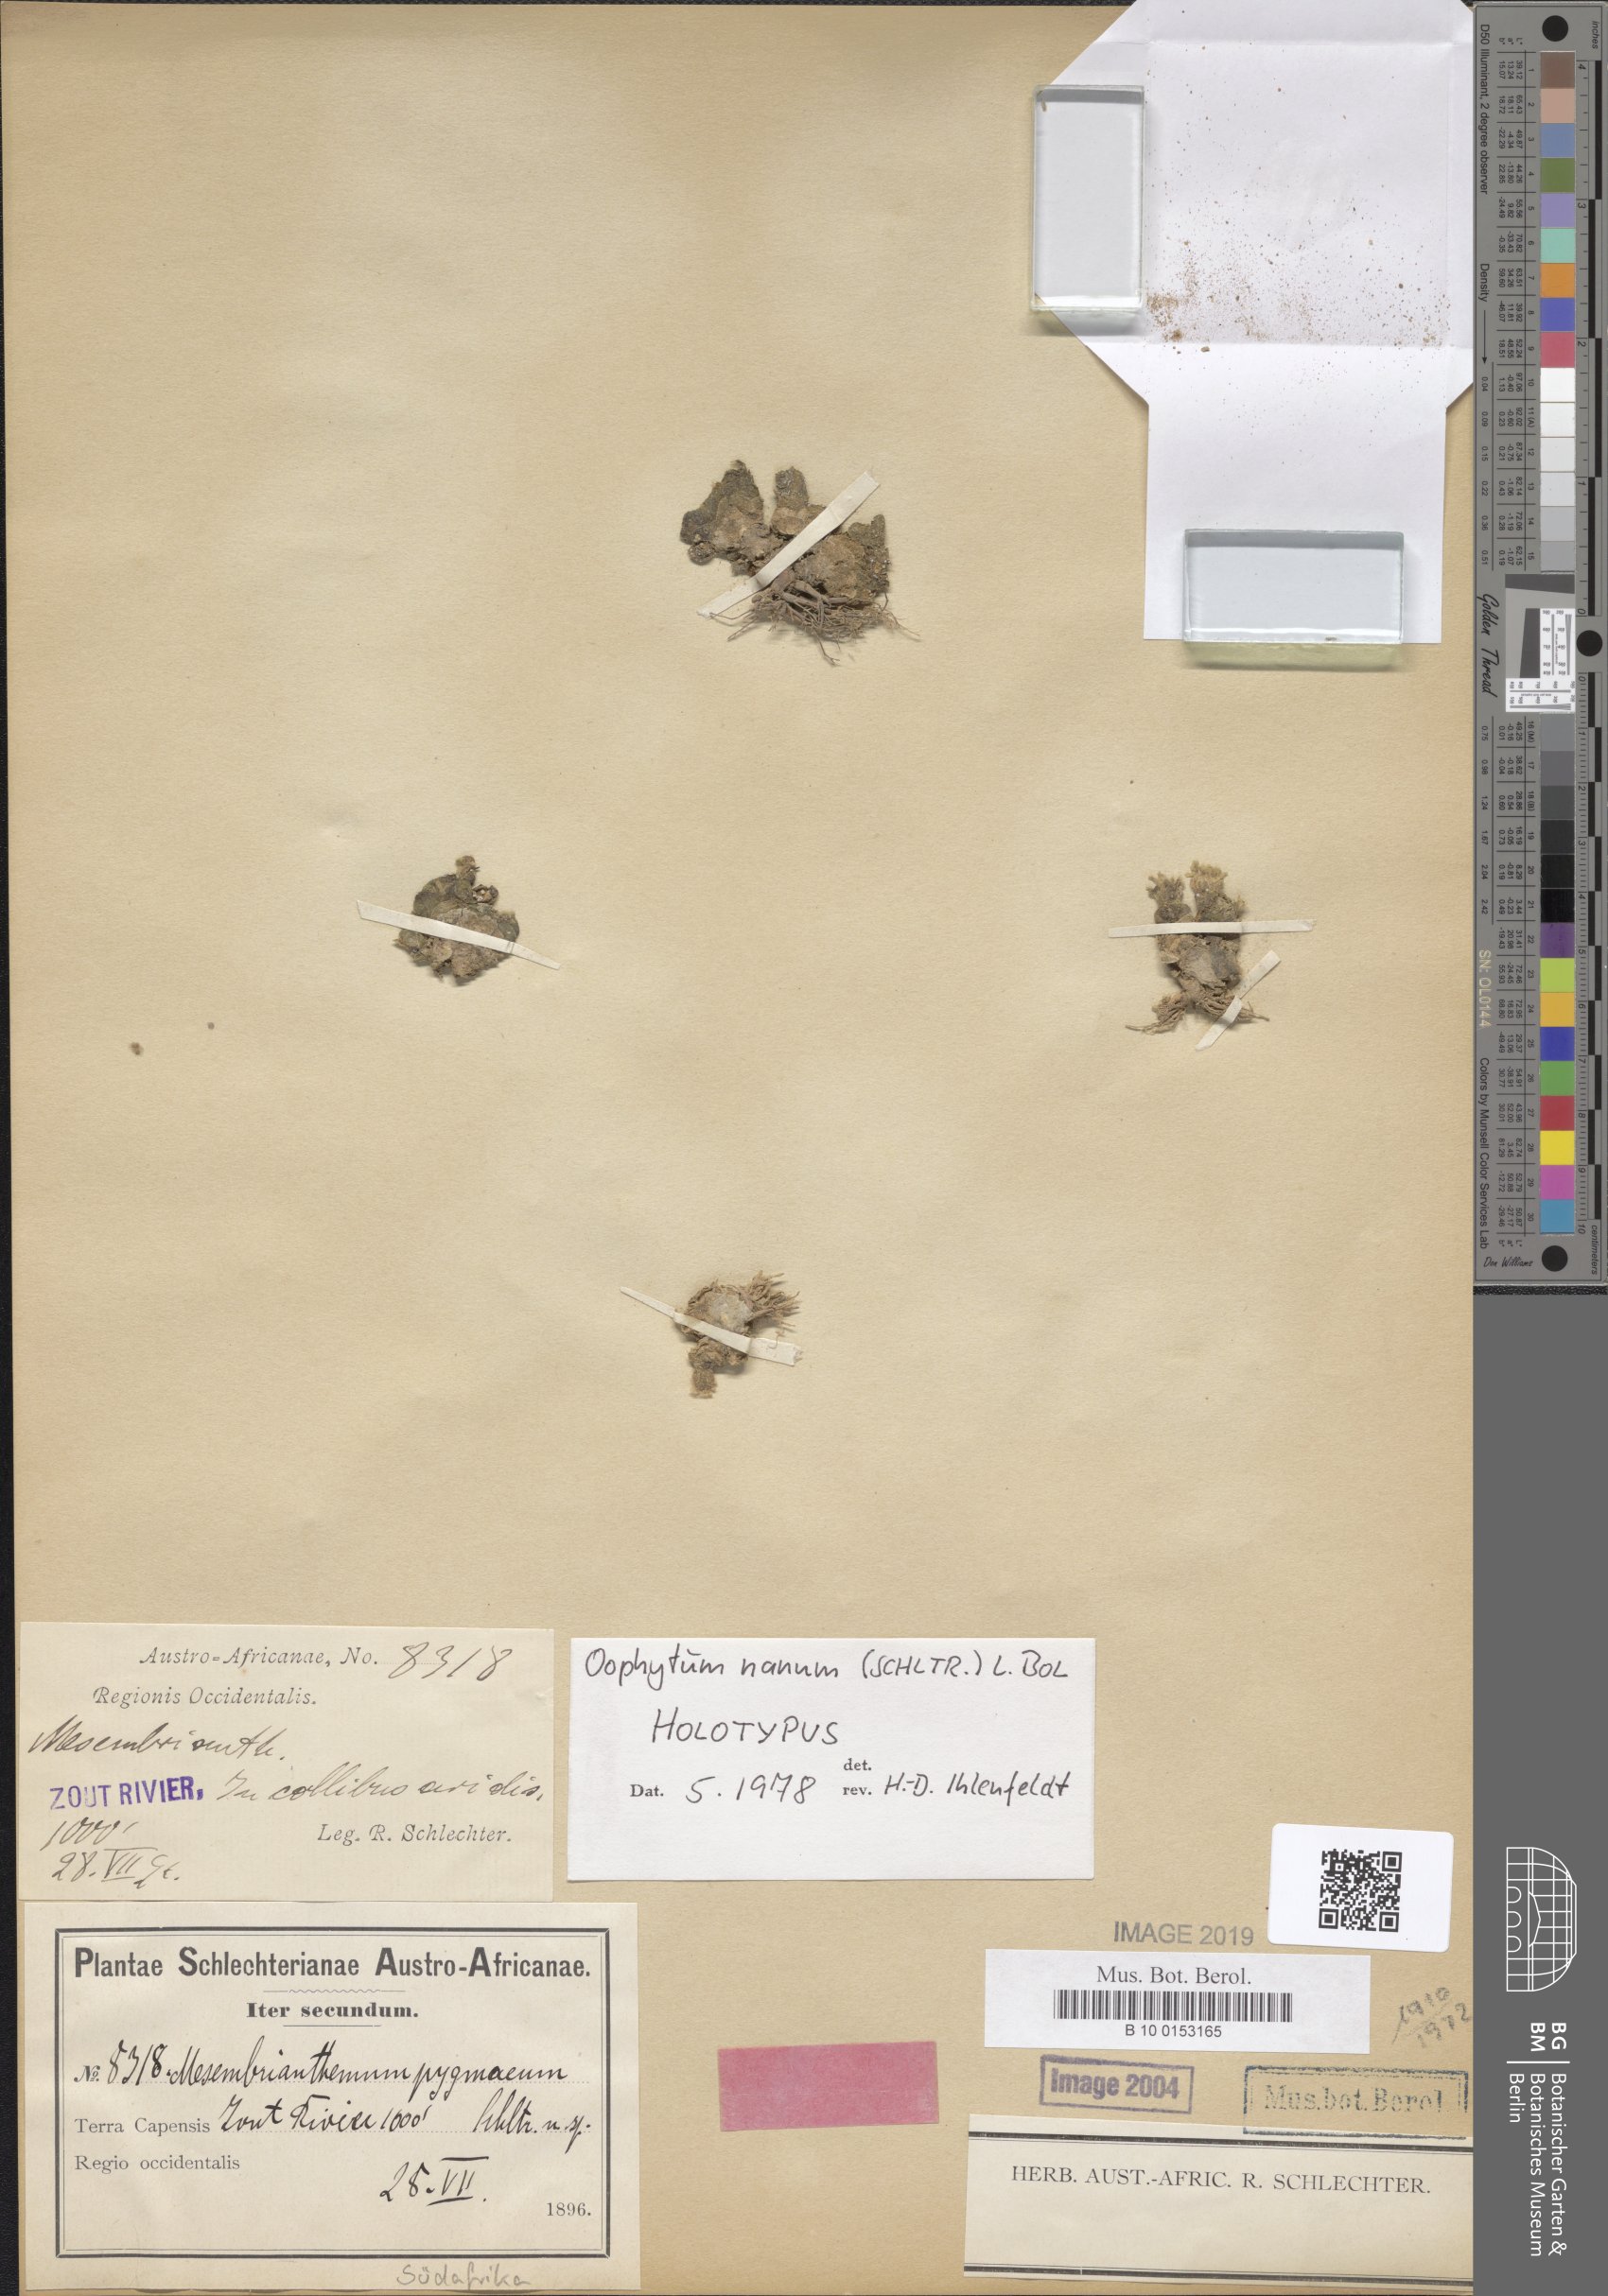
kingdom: Plantae
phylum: Tracheophyta
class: Magnoliopsida
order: Caryophyllales
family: Aizoaceae
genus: Oophytum
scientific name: Oophytum nanum
